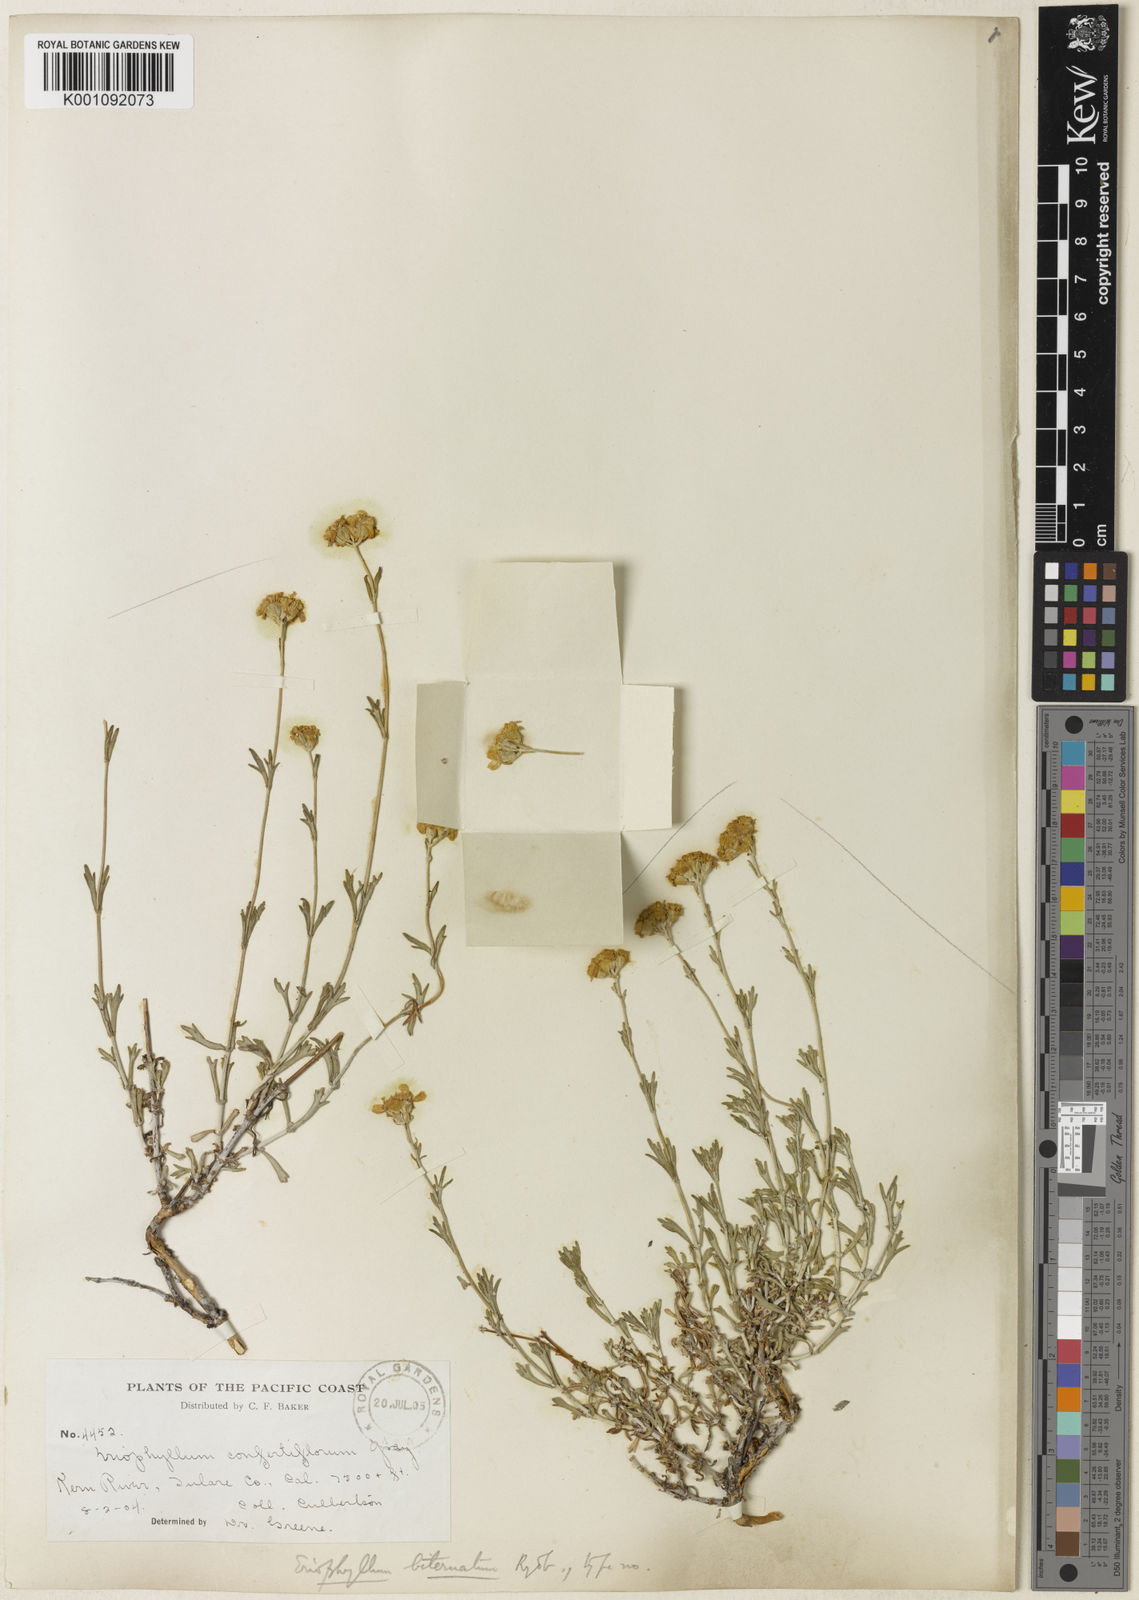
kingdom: Plantae
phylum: Tracheophyta
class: Magnoliopsida
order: Asterales
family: Asteraceae
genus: Eriophyllum
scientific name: Eriophyllum confertiflorum
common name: Golden-yarrow
